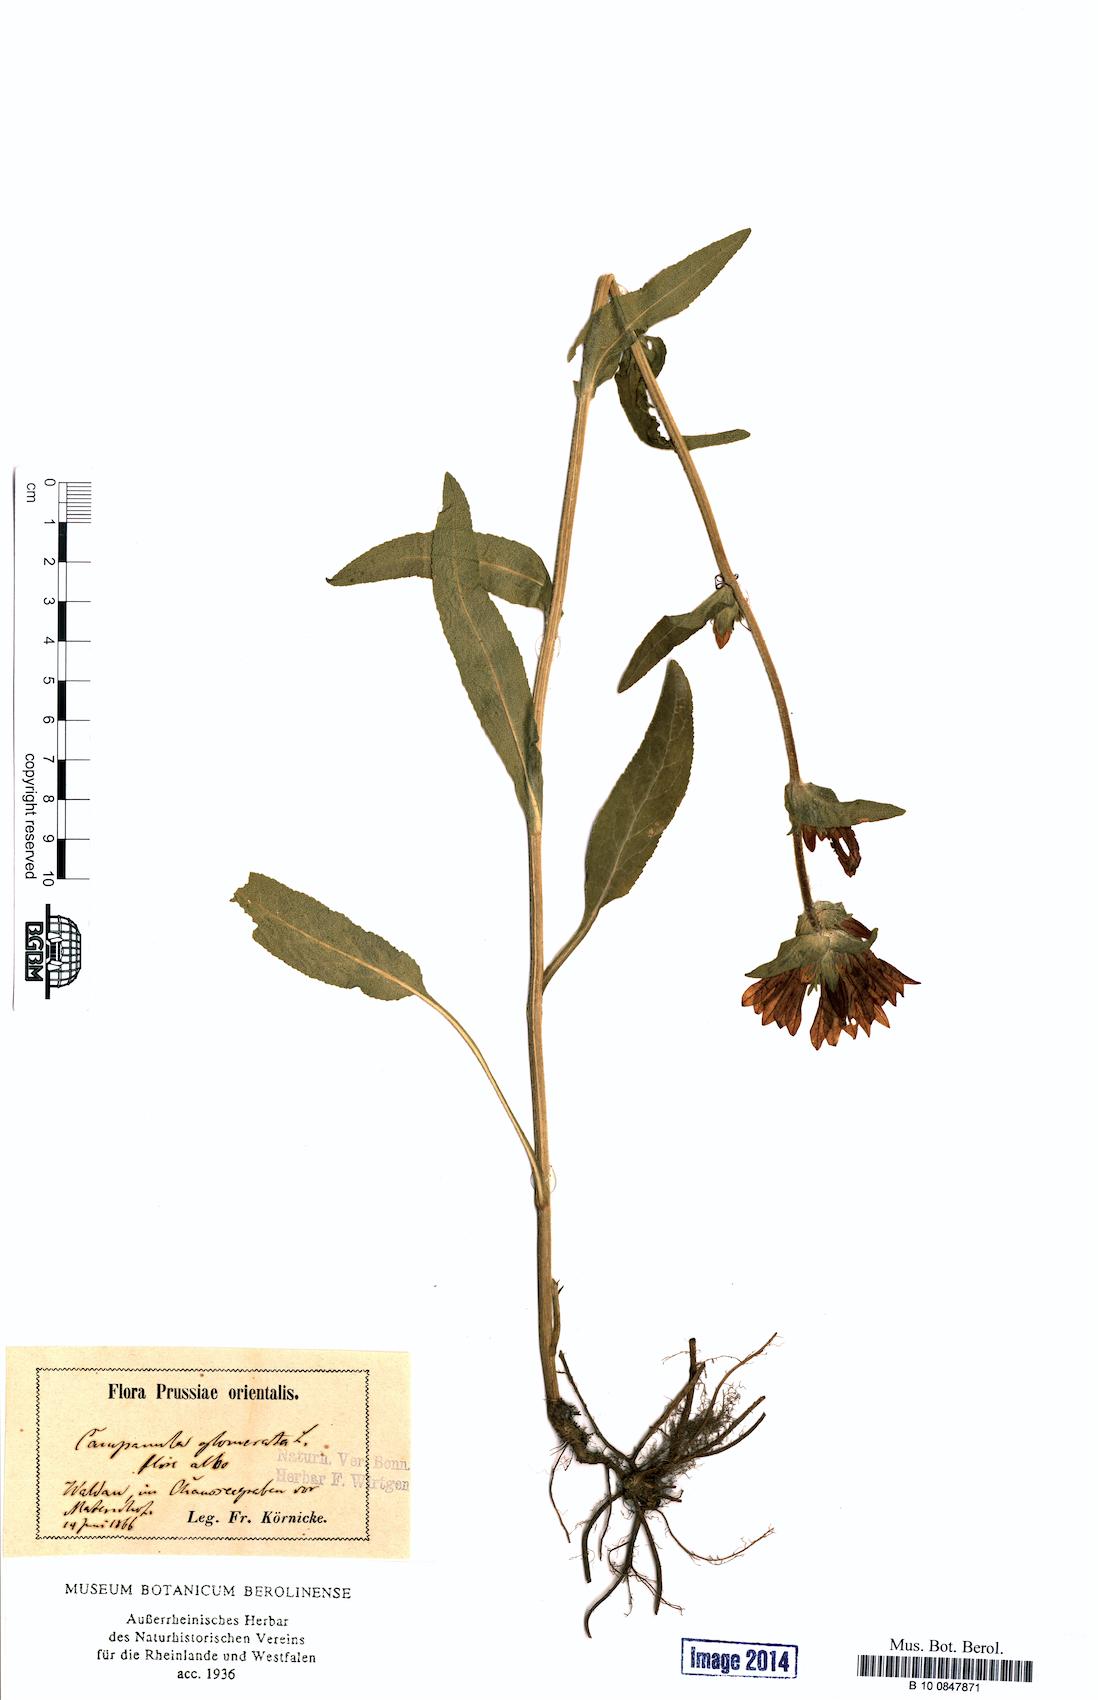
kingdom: Plantae
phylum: Tracheophyta
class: Magnoliopsida
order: Asterales
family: Campanulaceae
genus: Campanula
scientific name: Campanula glomerata
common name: Clustered bellflower
